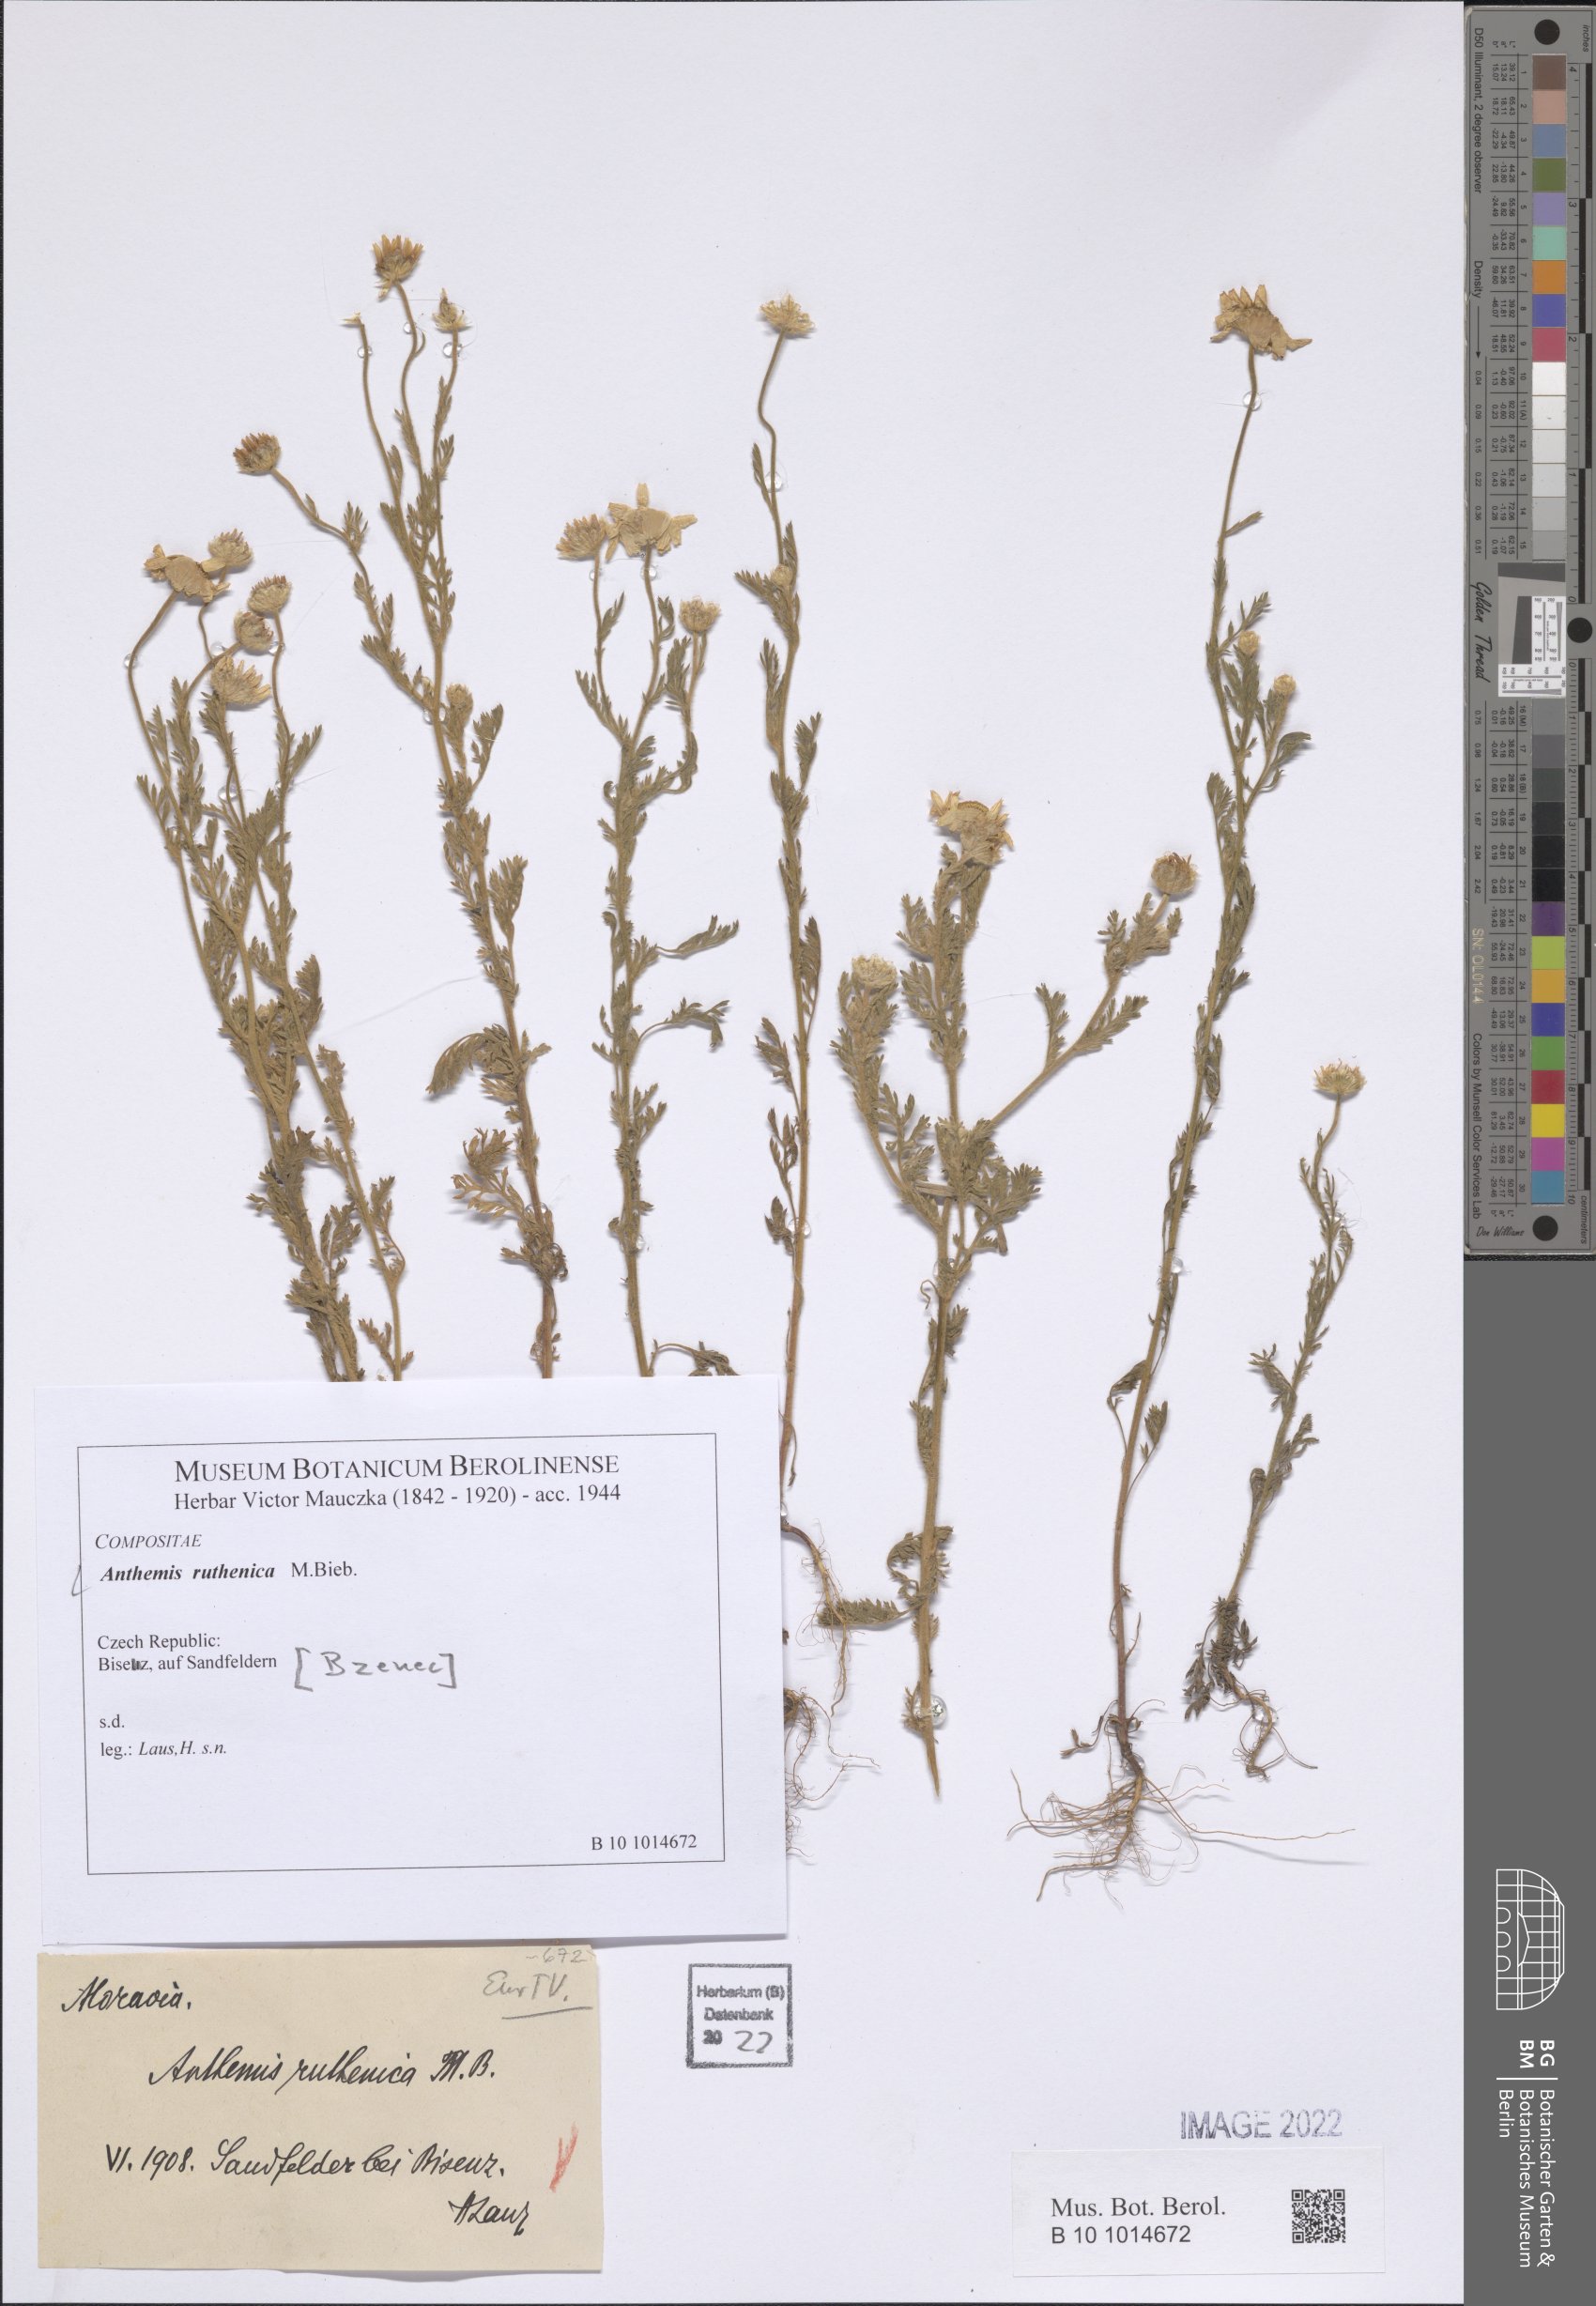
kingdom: Plantae
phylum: Tracheophyta
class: Magnoliopsida
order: Asterales
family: Asteraceae
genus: Anthemis
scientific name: Anthemis ruthenica
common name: Eastern chamomile
